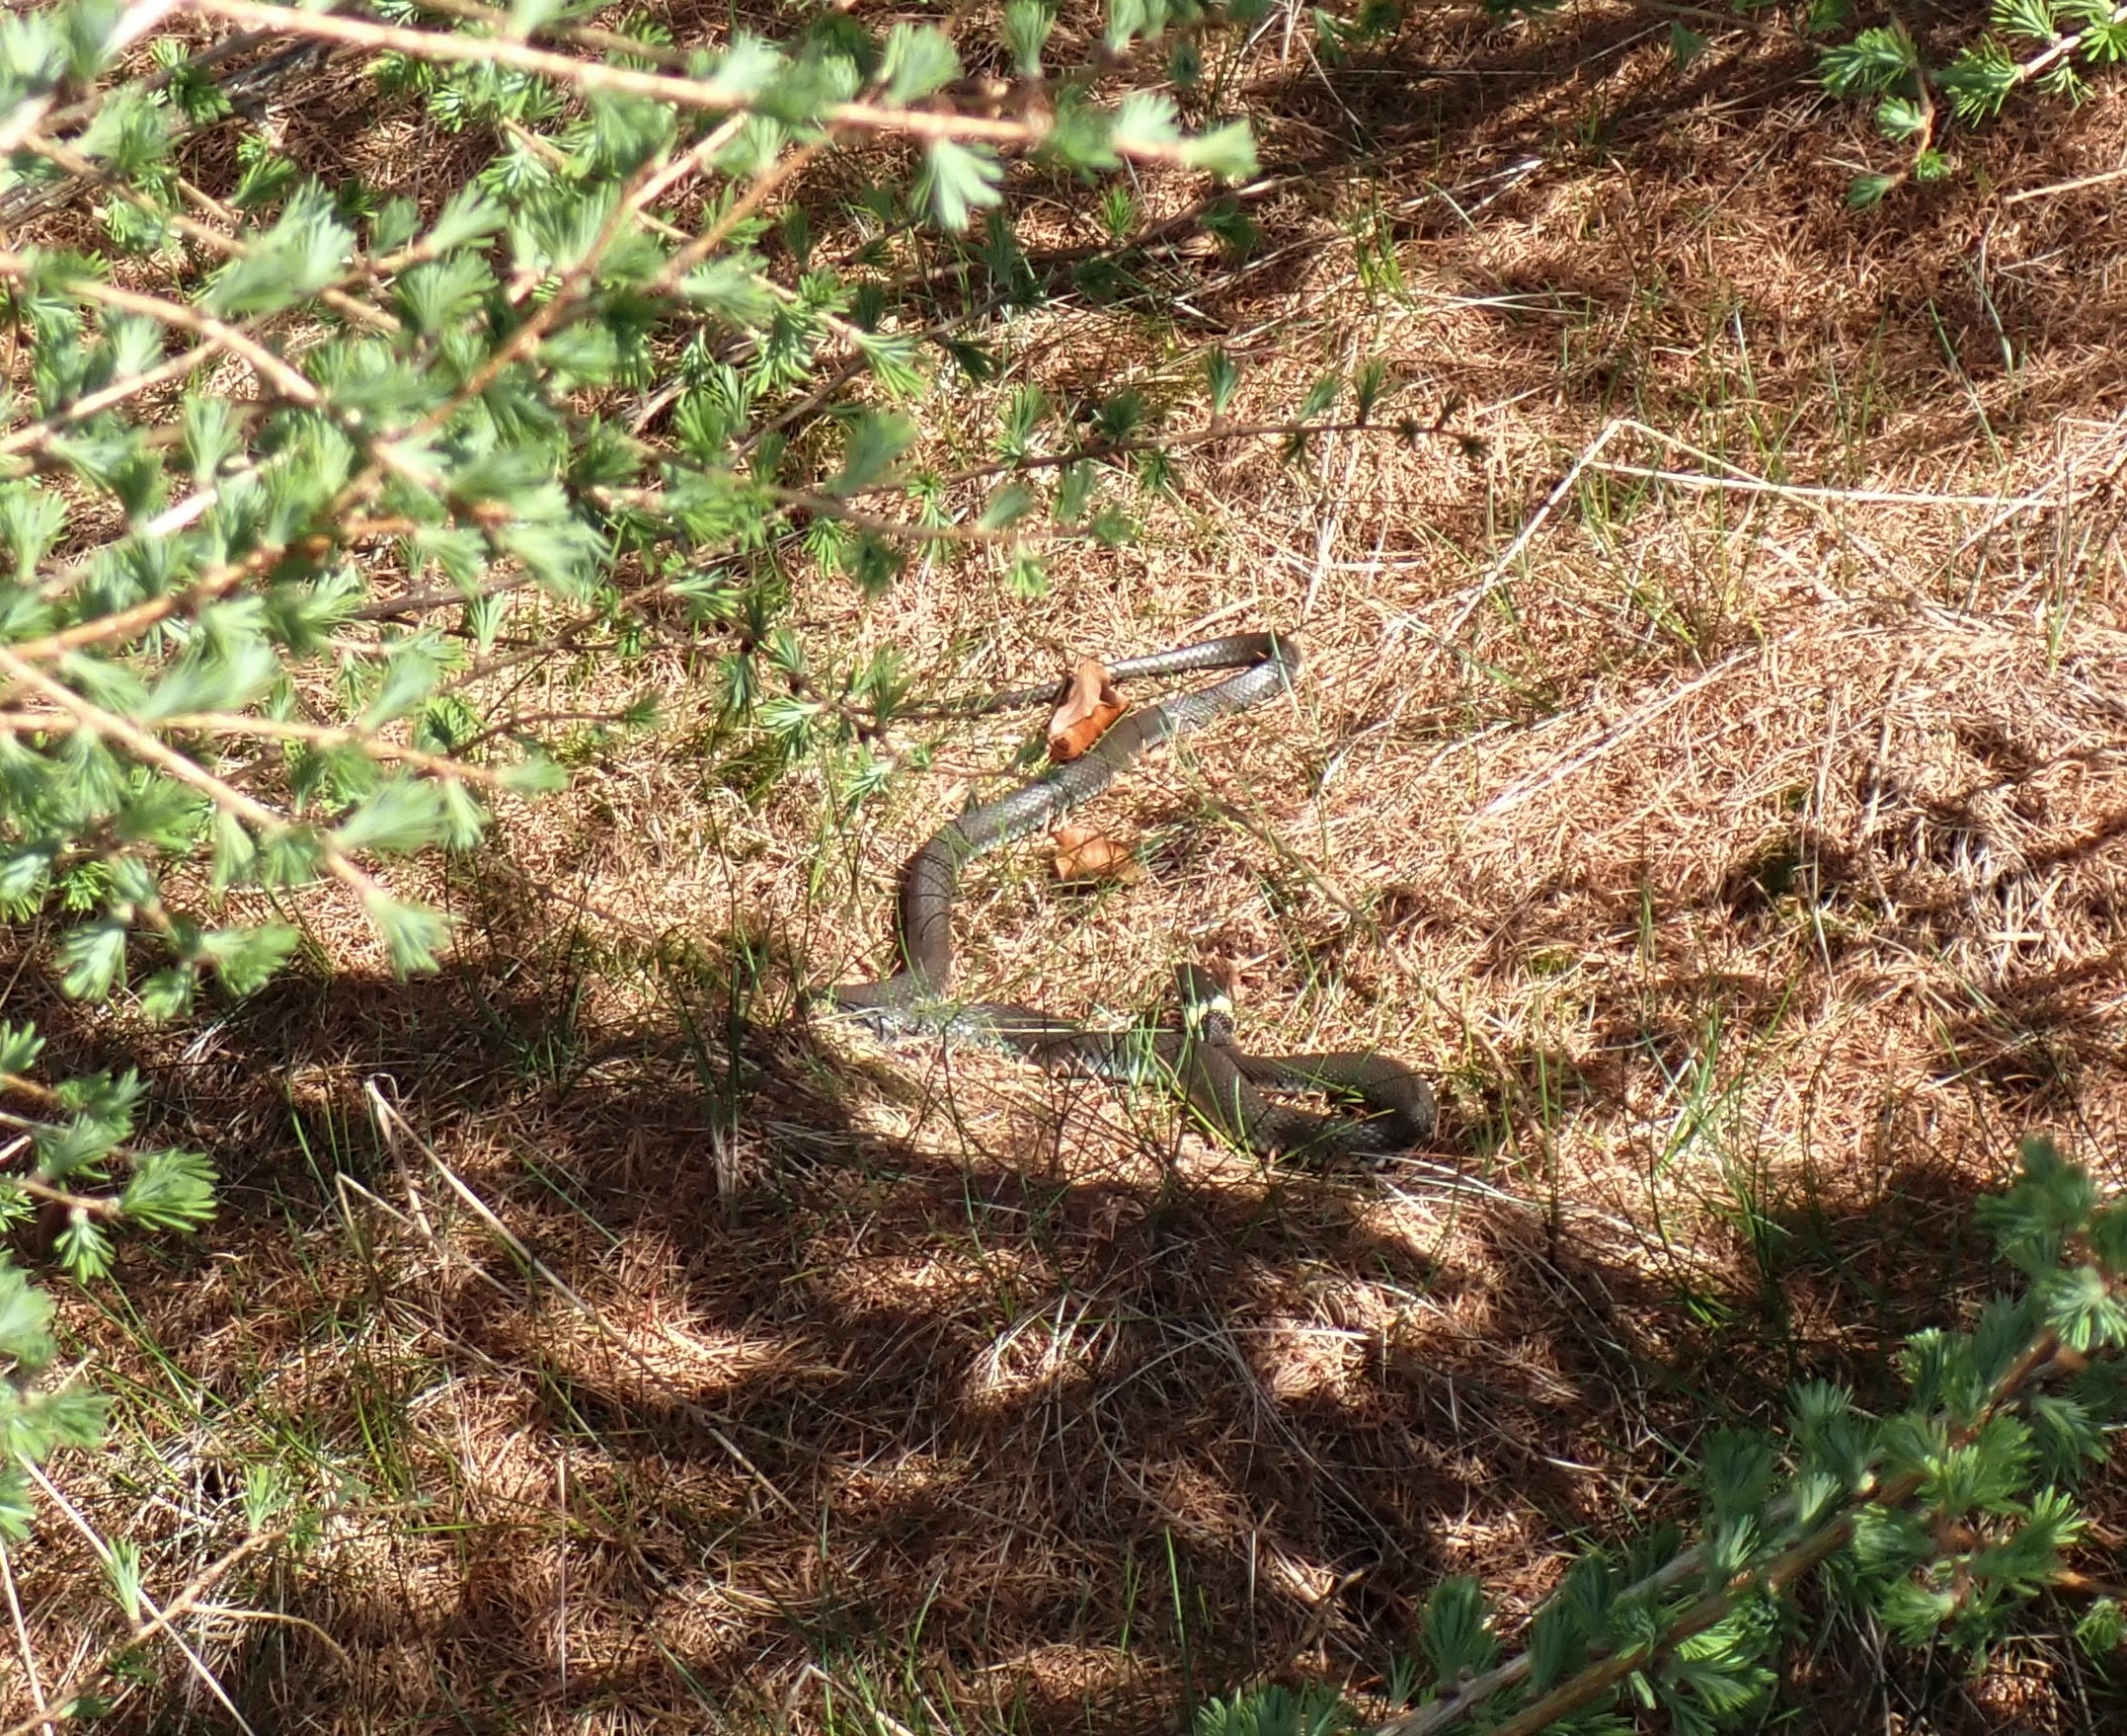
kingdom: Animalia
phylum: Chordata
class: Squamata
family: Colubridae
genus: Natrix
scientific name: Natrix natrix
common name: Snog
